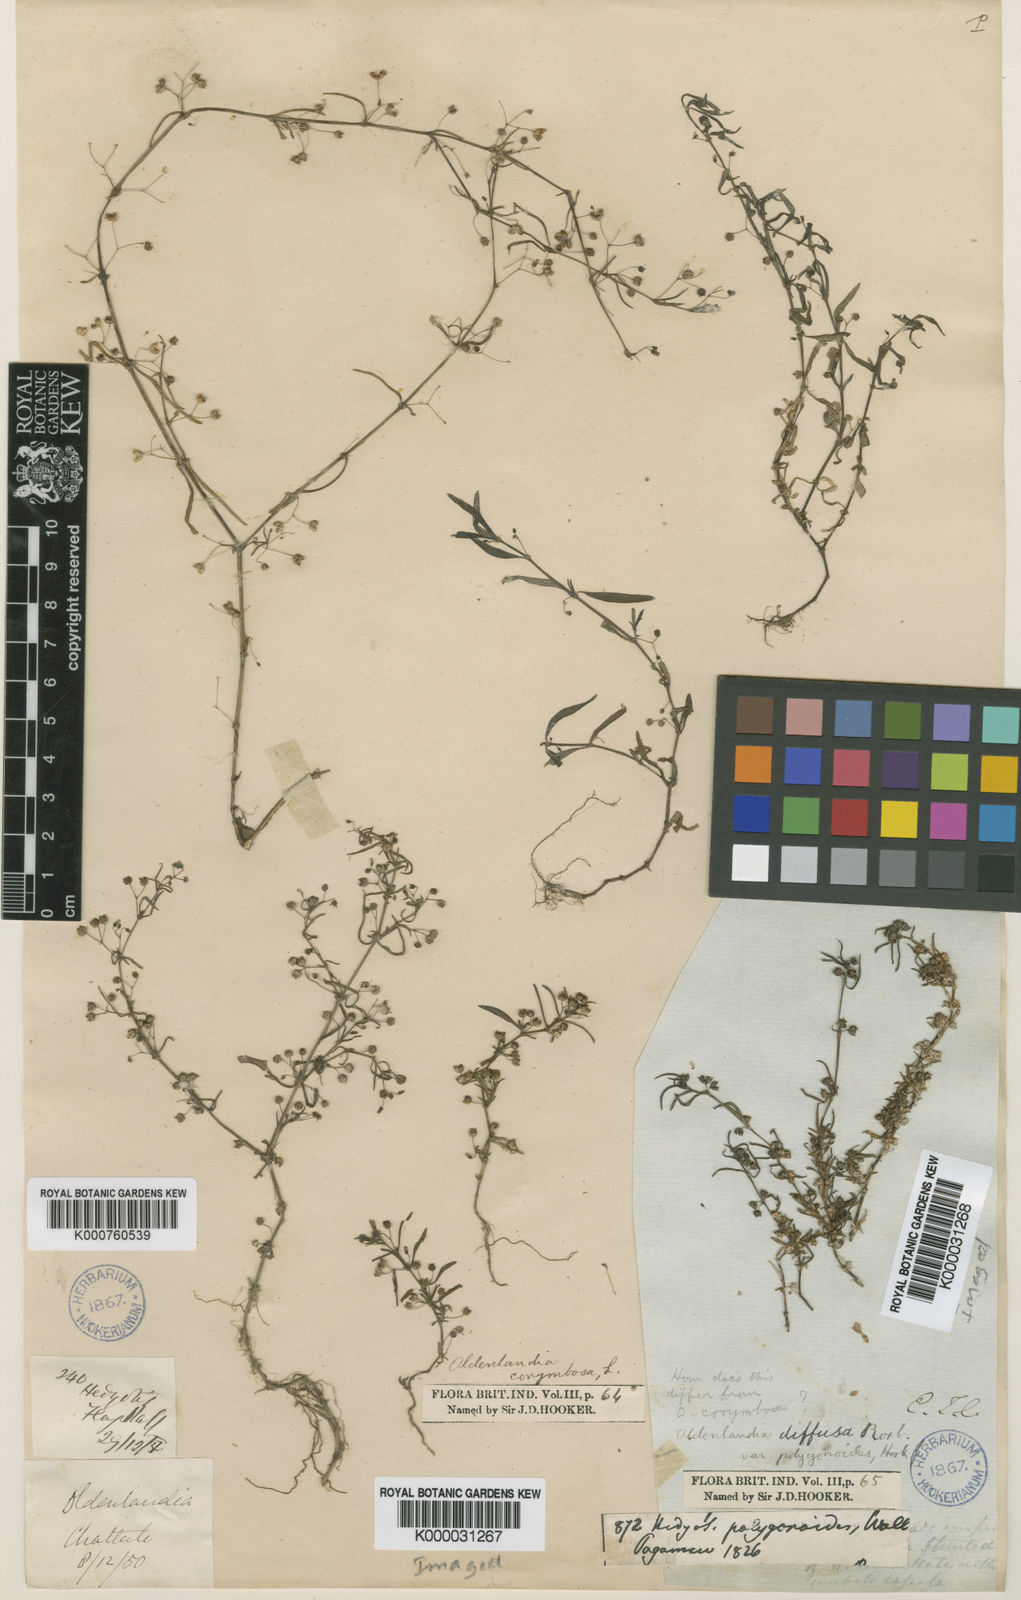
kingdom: Plantae
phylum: Tracheophyta
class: Magnoliopsida
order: Gentianales
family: Rubiaceae
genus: Scleromitrion
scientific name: Scleromitrion diffusum
